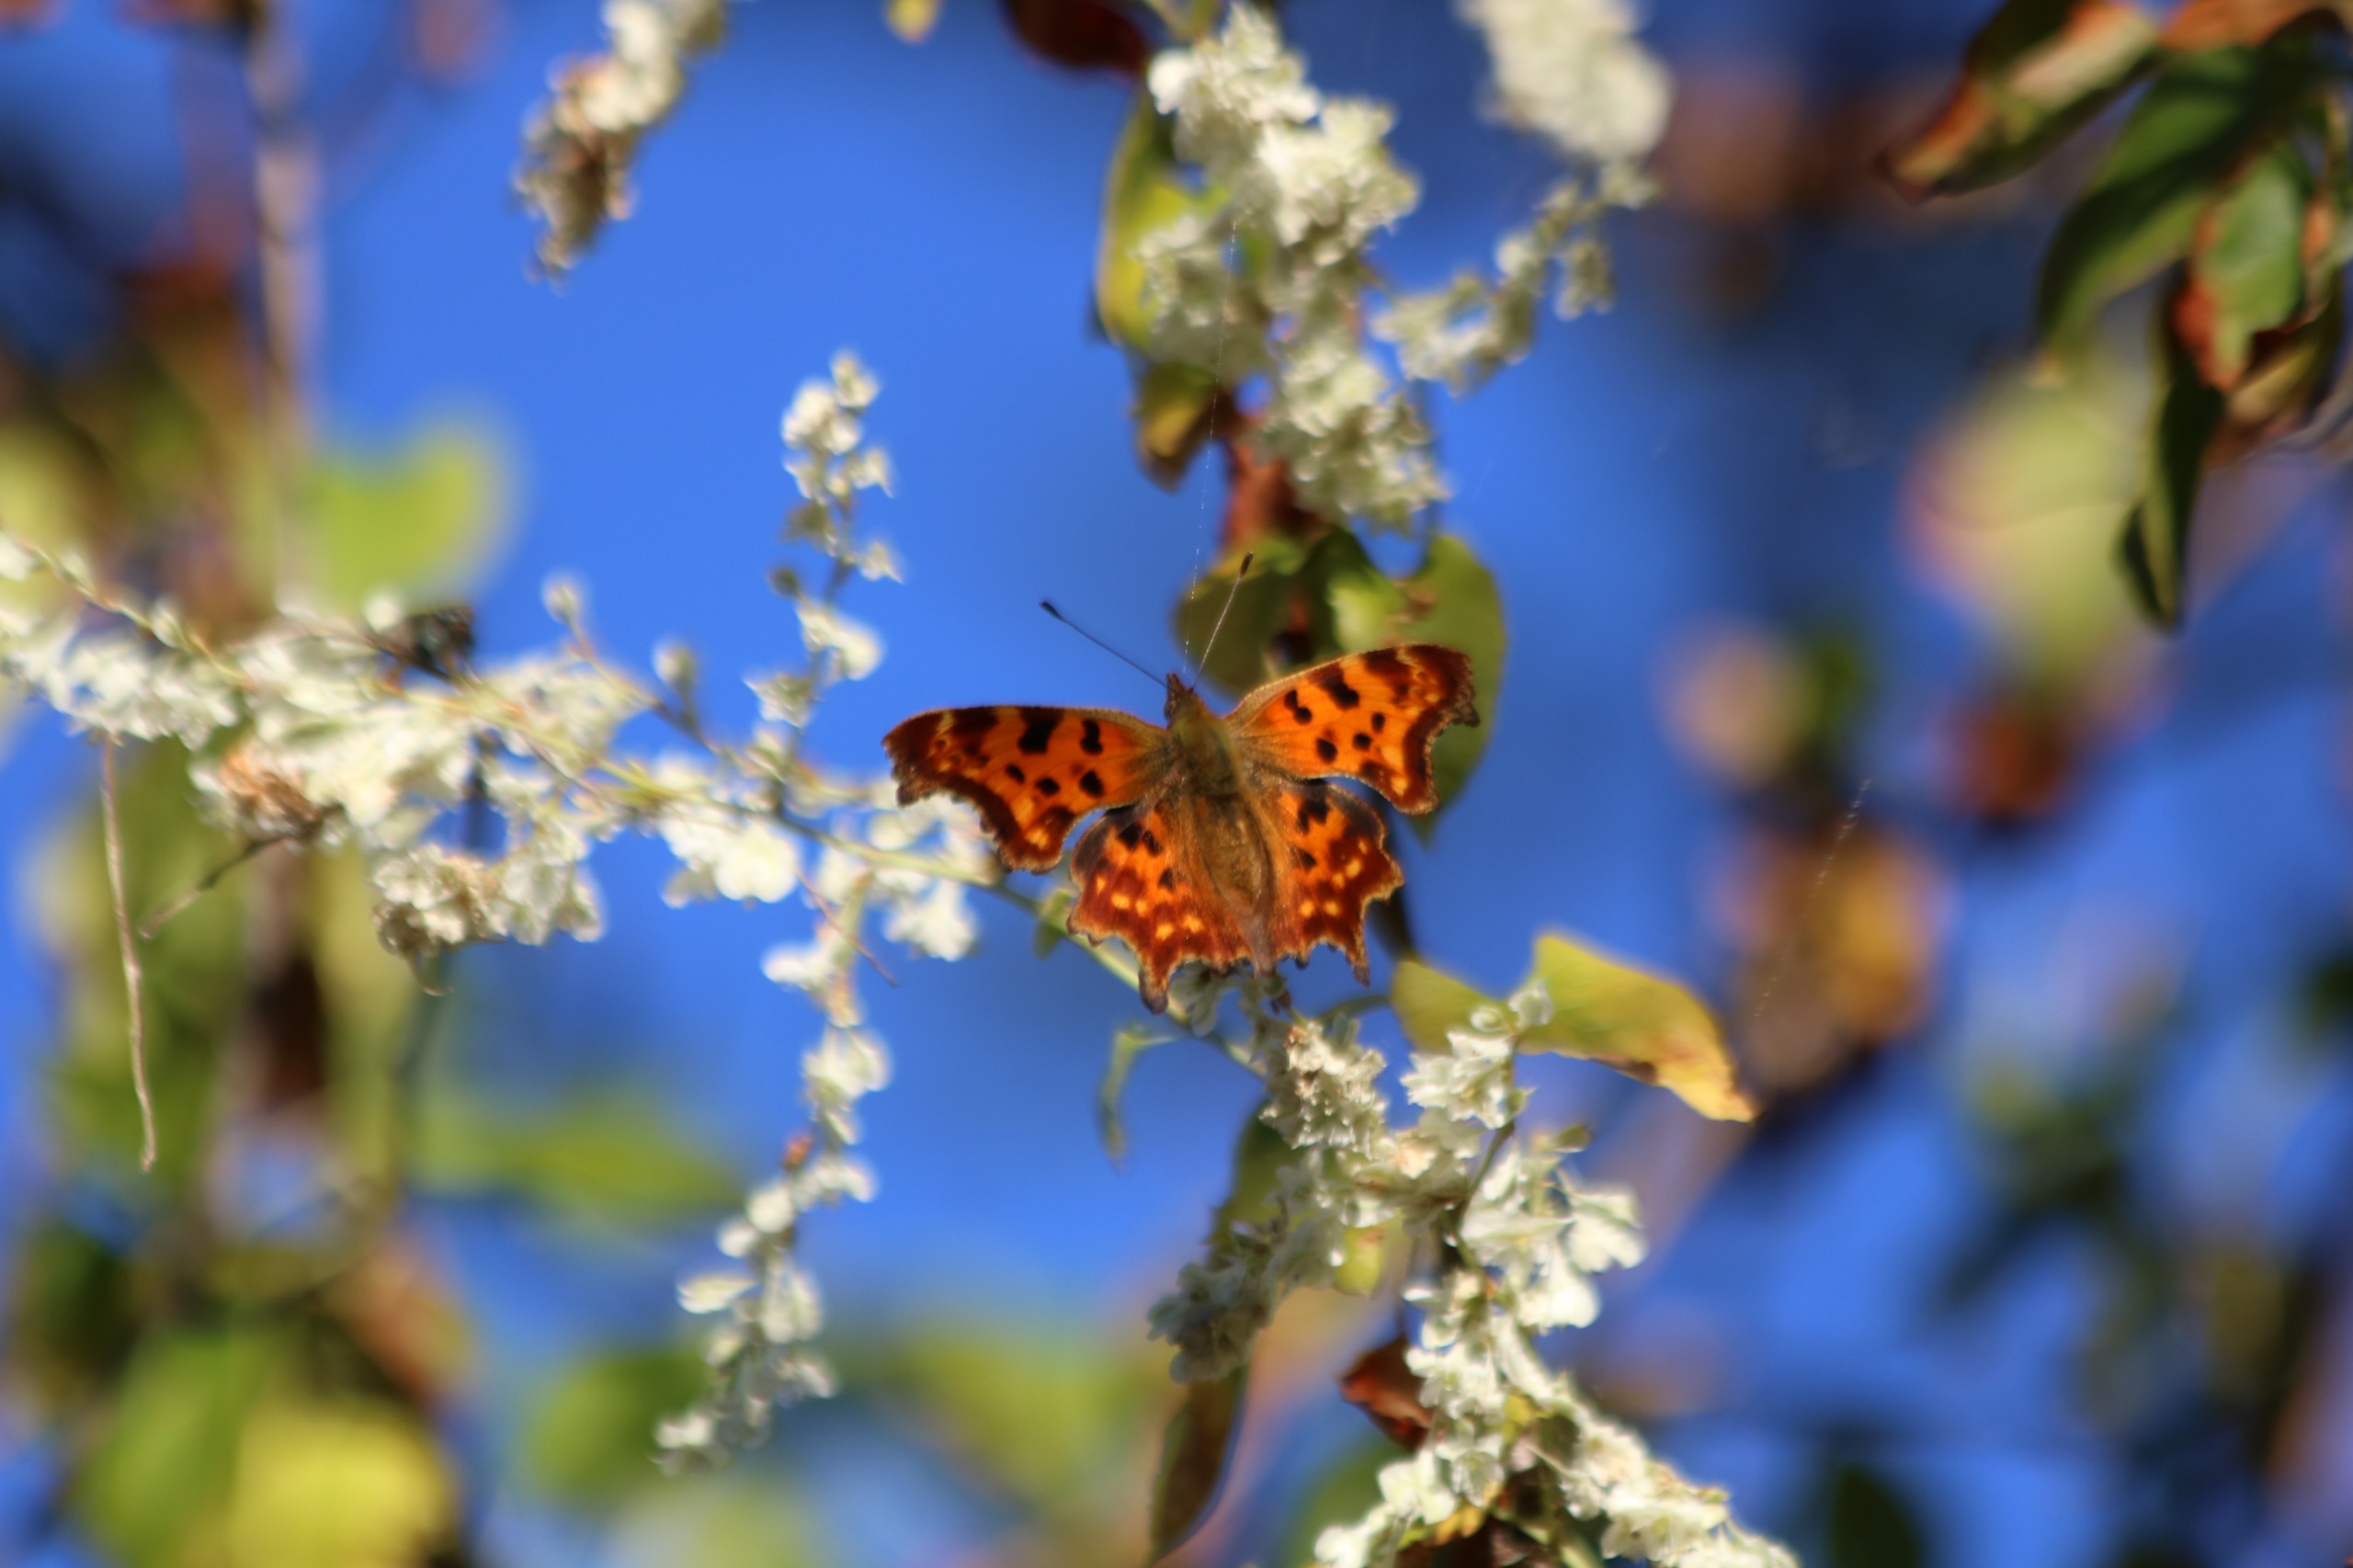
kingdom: Animalia
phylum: Arthropoda
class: Insecta
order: Lepidoptera
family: Nymphalidae
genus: Polygonia
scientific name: Polygonia c-album
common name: Det hvide C
